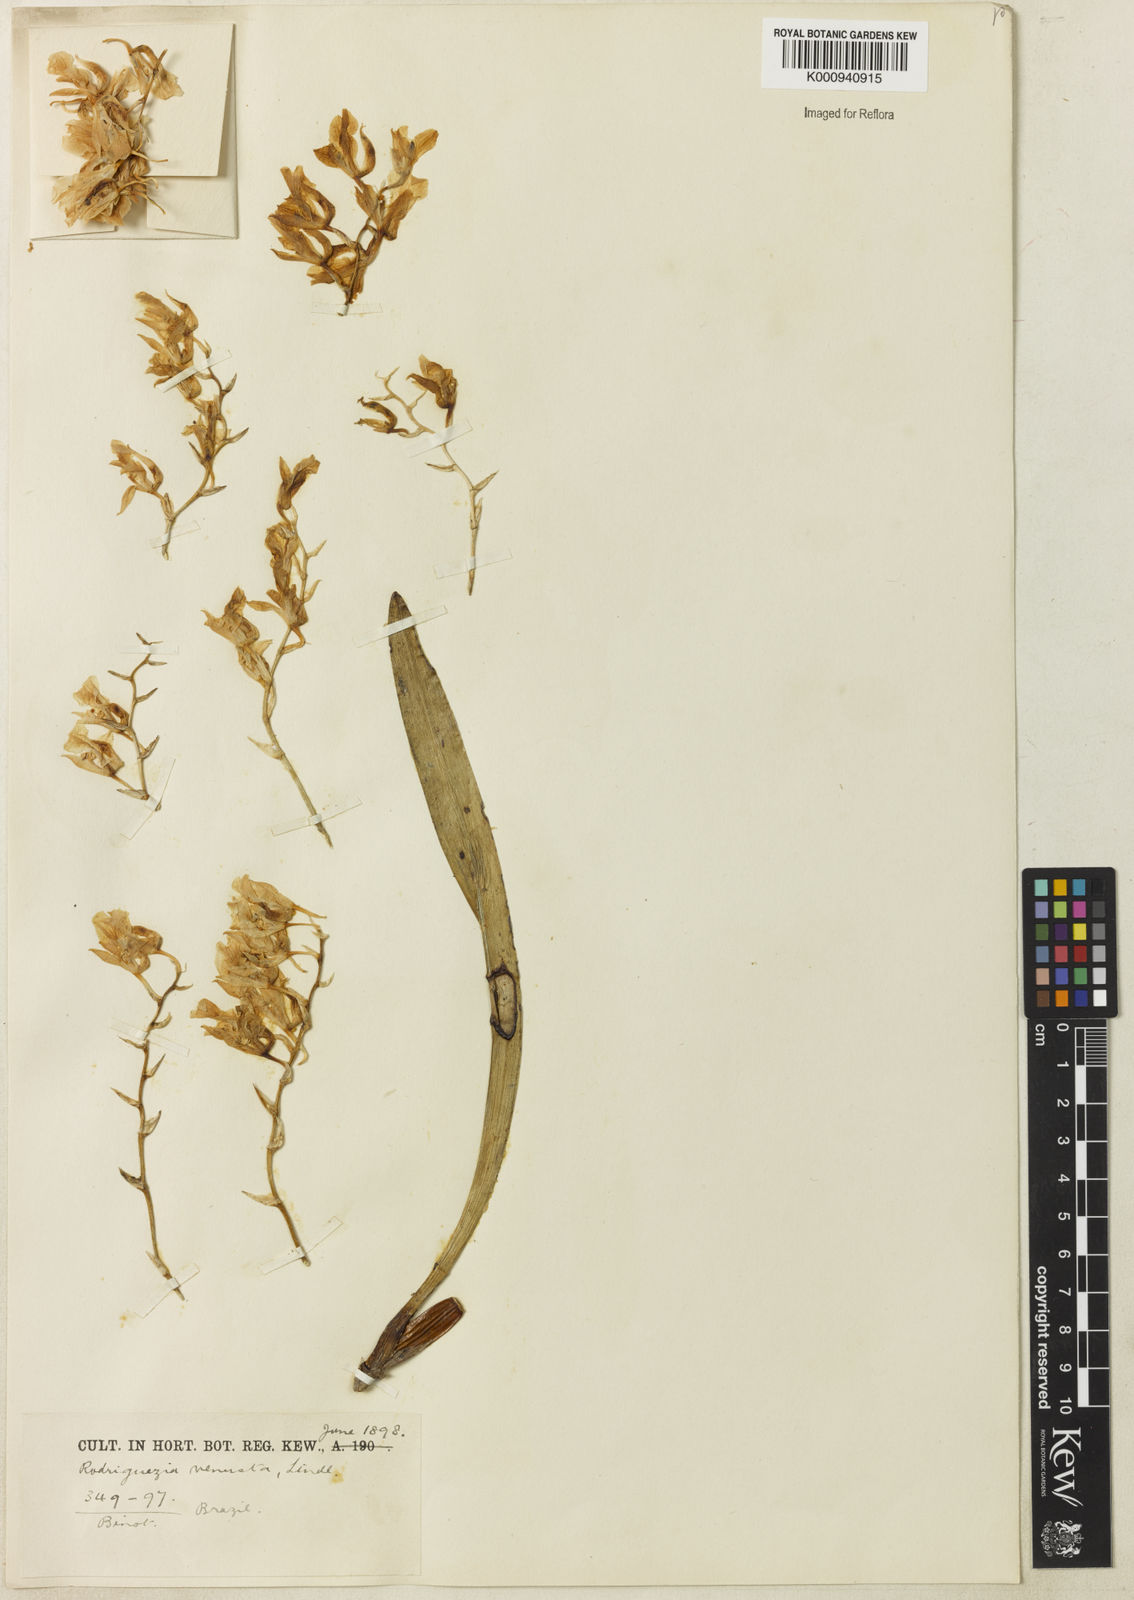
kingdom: Plantae
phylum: Tracheophyta
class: Liliopsida
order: Asparagales
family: Orchidaceae
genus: Rodriguezia
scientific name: Rodriguezia bracteata
